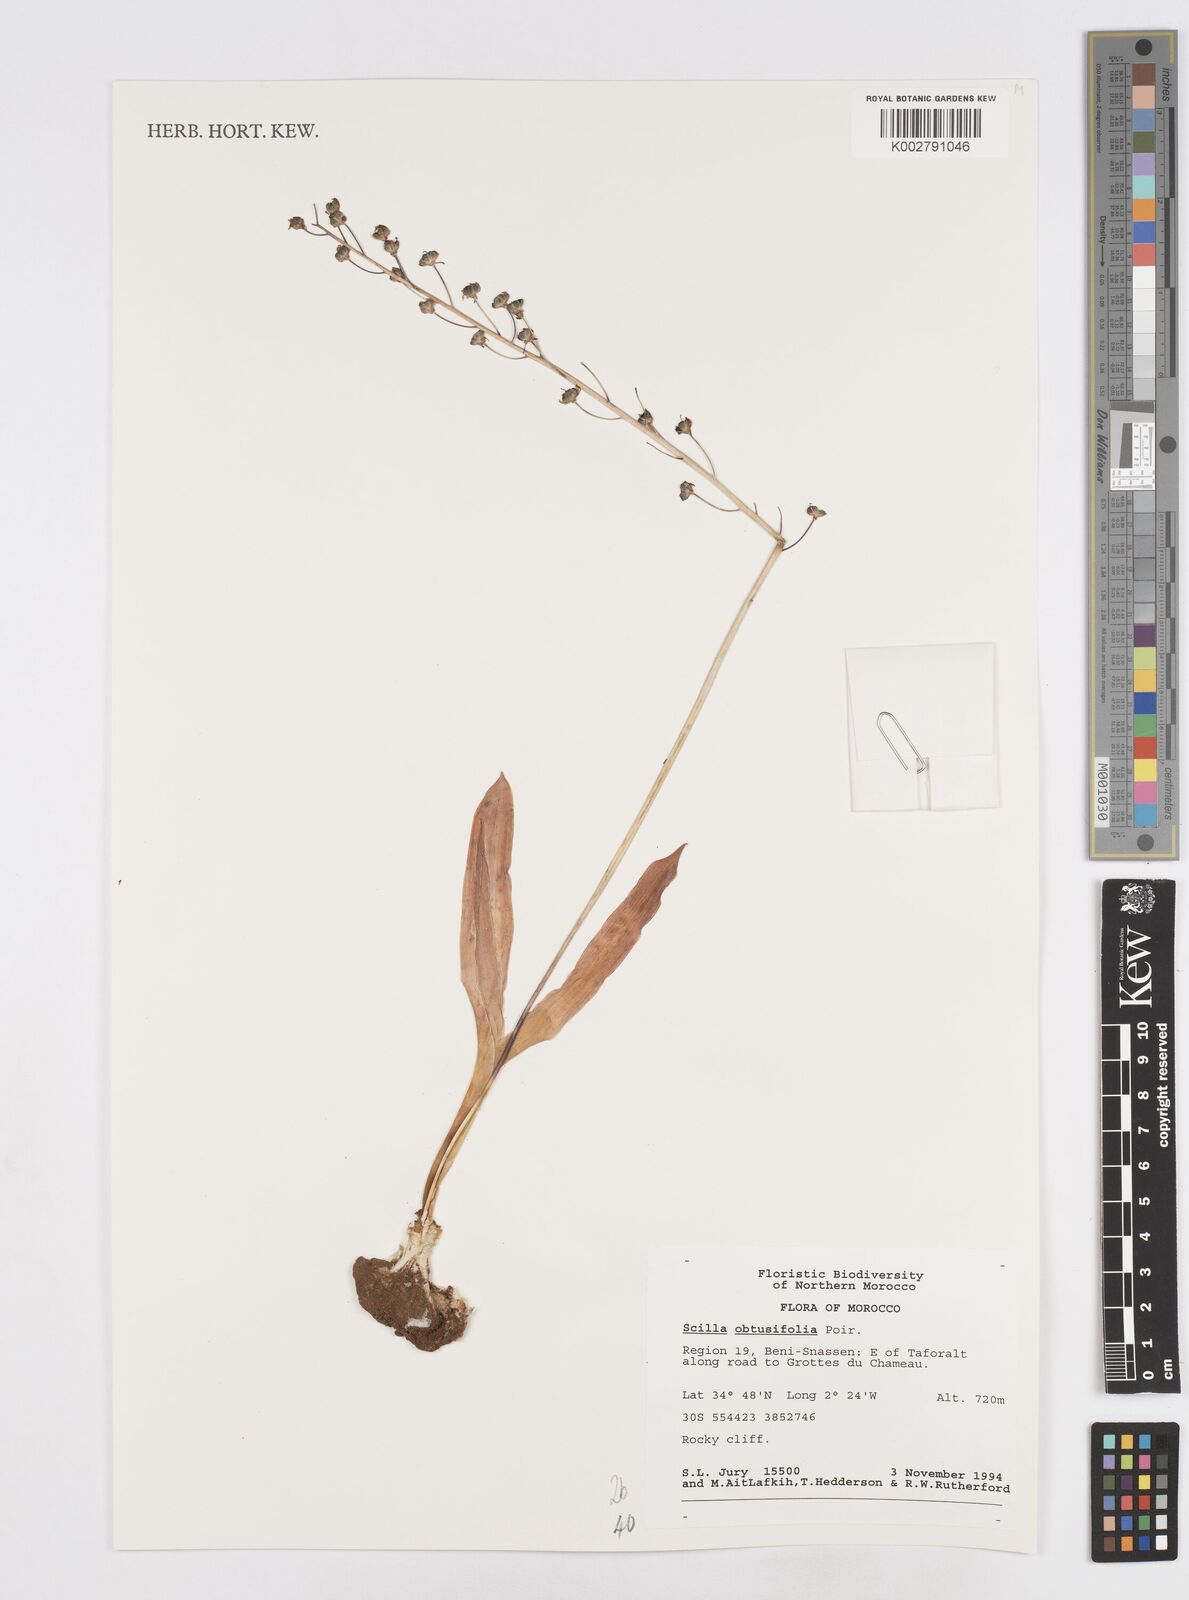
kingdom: Plantae
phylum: Tracheophyta
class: Liliopsida
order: Asparagales
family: Asparagaceae
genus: Prospero
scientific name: Prospero obtusifolium
